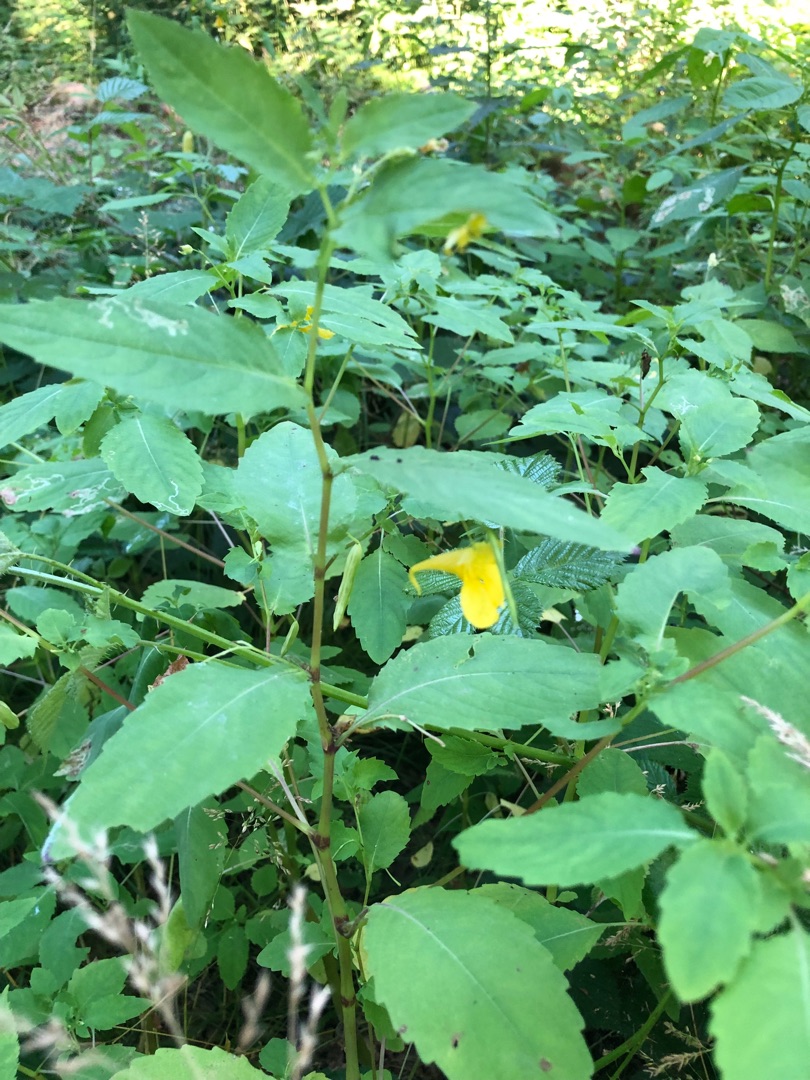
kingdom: Plantae
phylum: Tracheophyta
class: Magnoliopsida
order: Ericales
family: Balsaminaceae
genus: Impatiens
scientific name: Impatiens noli-tangere
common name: Spring-balsamin
